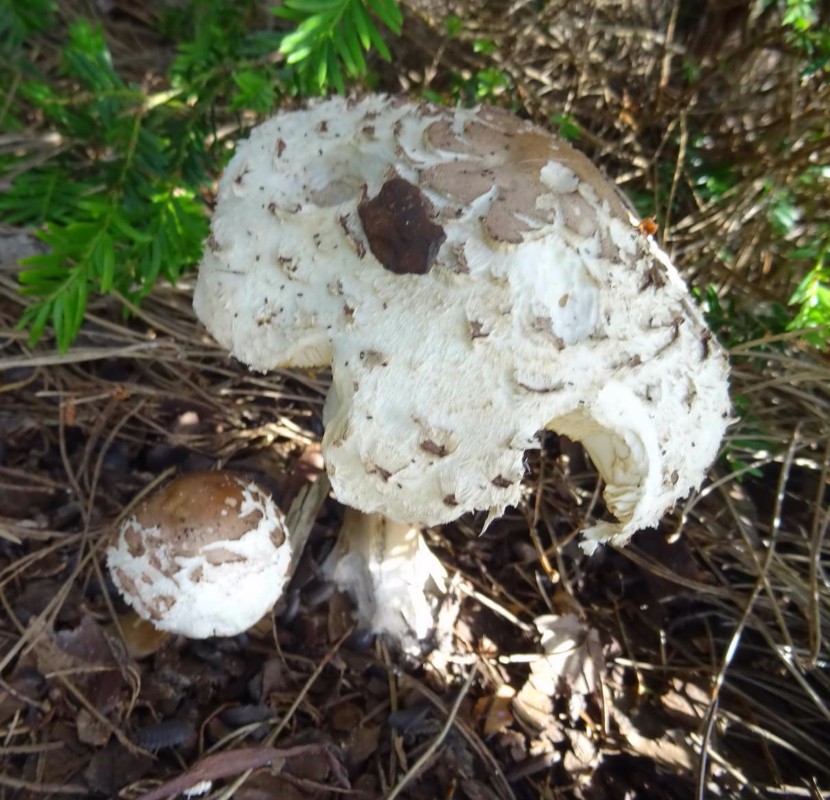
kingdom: Fungi
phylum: Basidiomycota
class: Agaricomycetes
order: Agaricales
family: Agaricaceae
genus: Chlorophyllum
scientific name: Chlorophyllum rhacodes
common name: ægte rabarberhat
